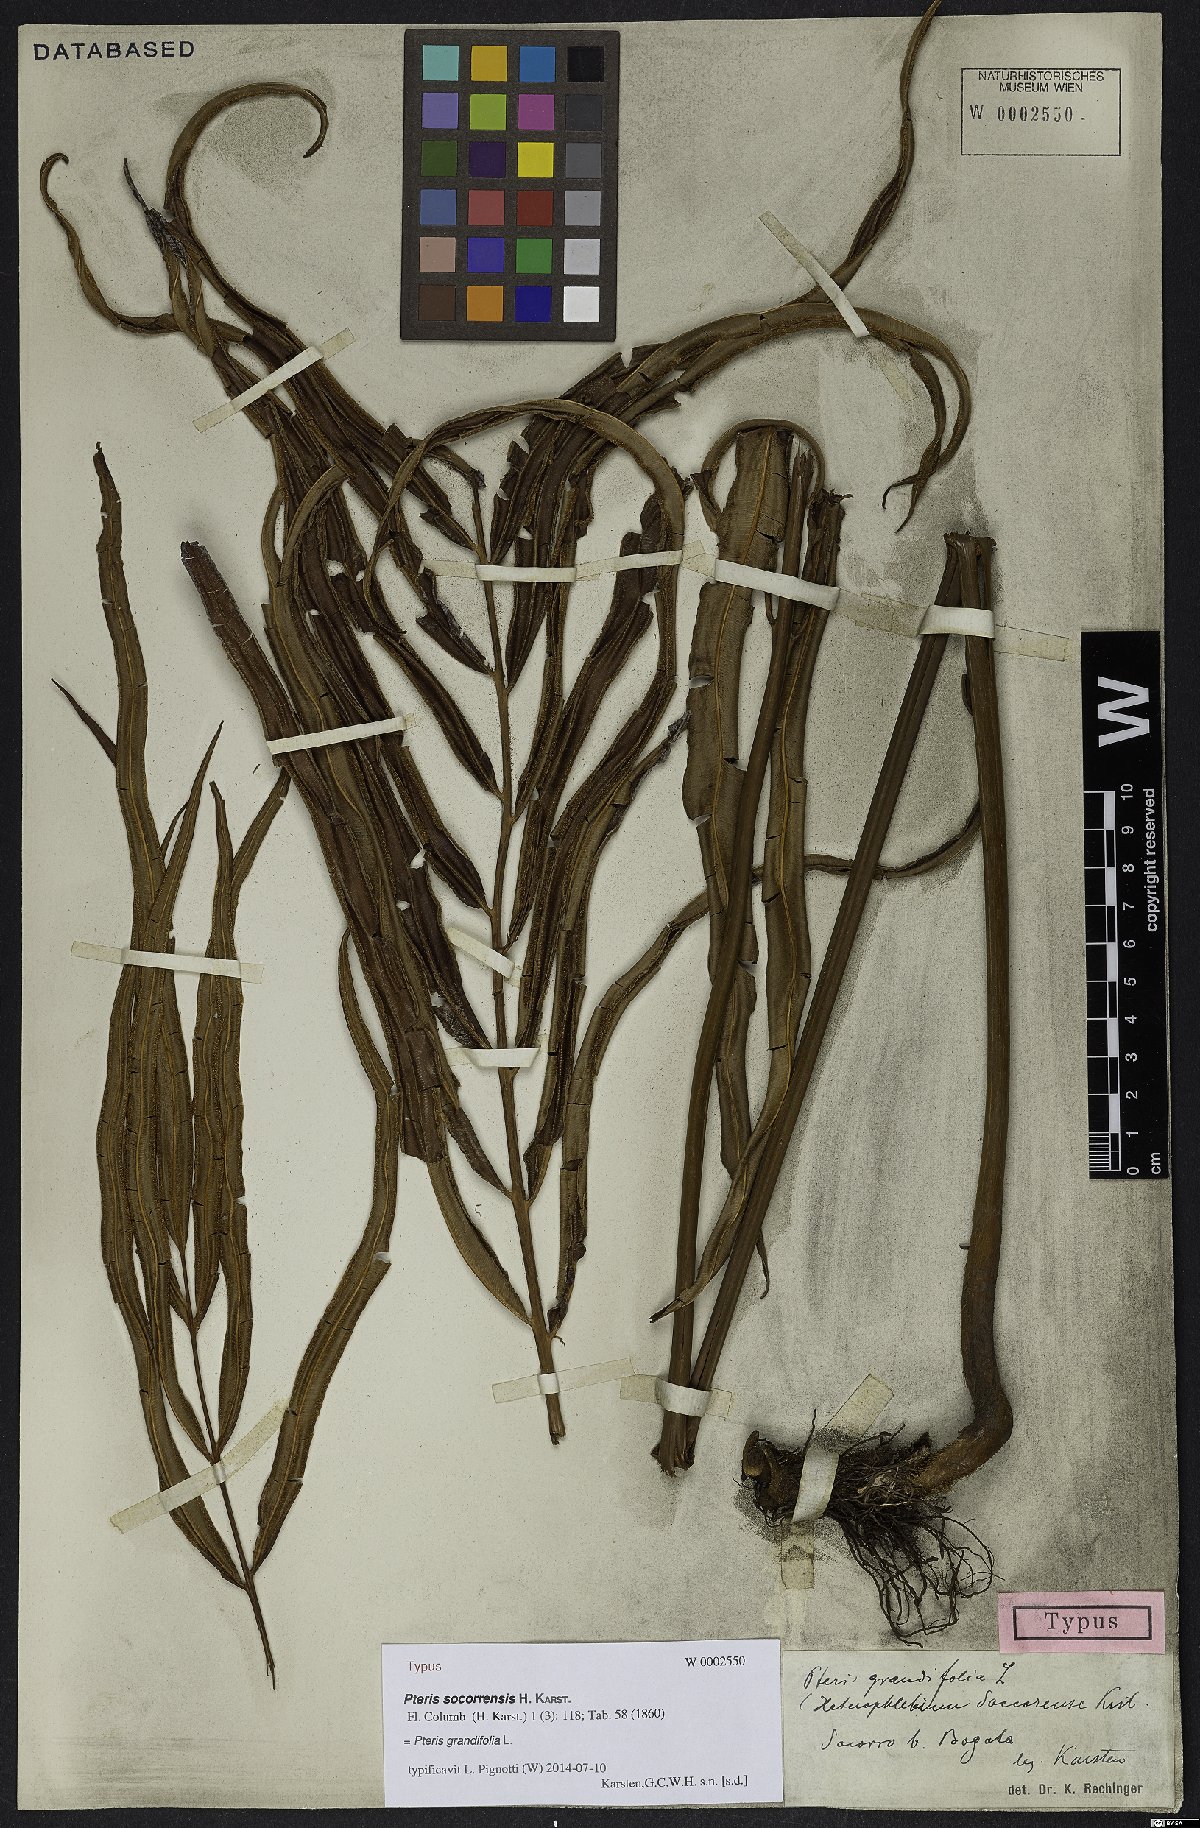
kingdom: Plantae
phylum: Tracheophyta
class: Polypodiopsida
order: Polypodiales
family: Pteridaceae
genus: Pteris
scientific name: Pteris grandifolia
